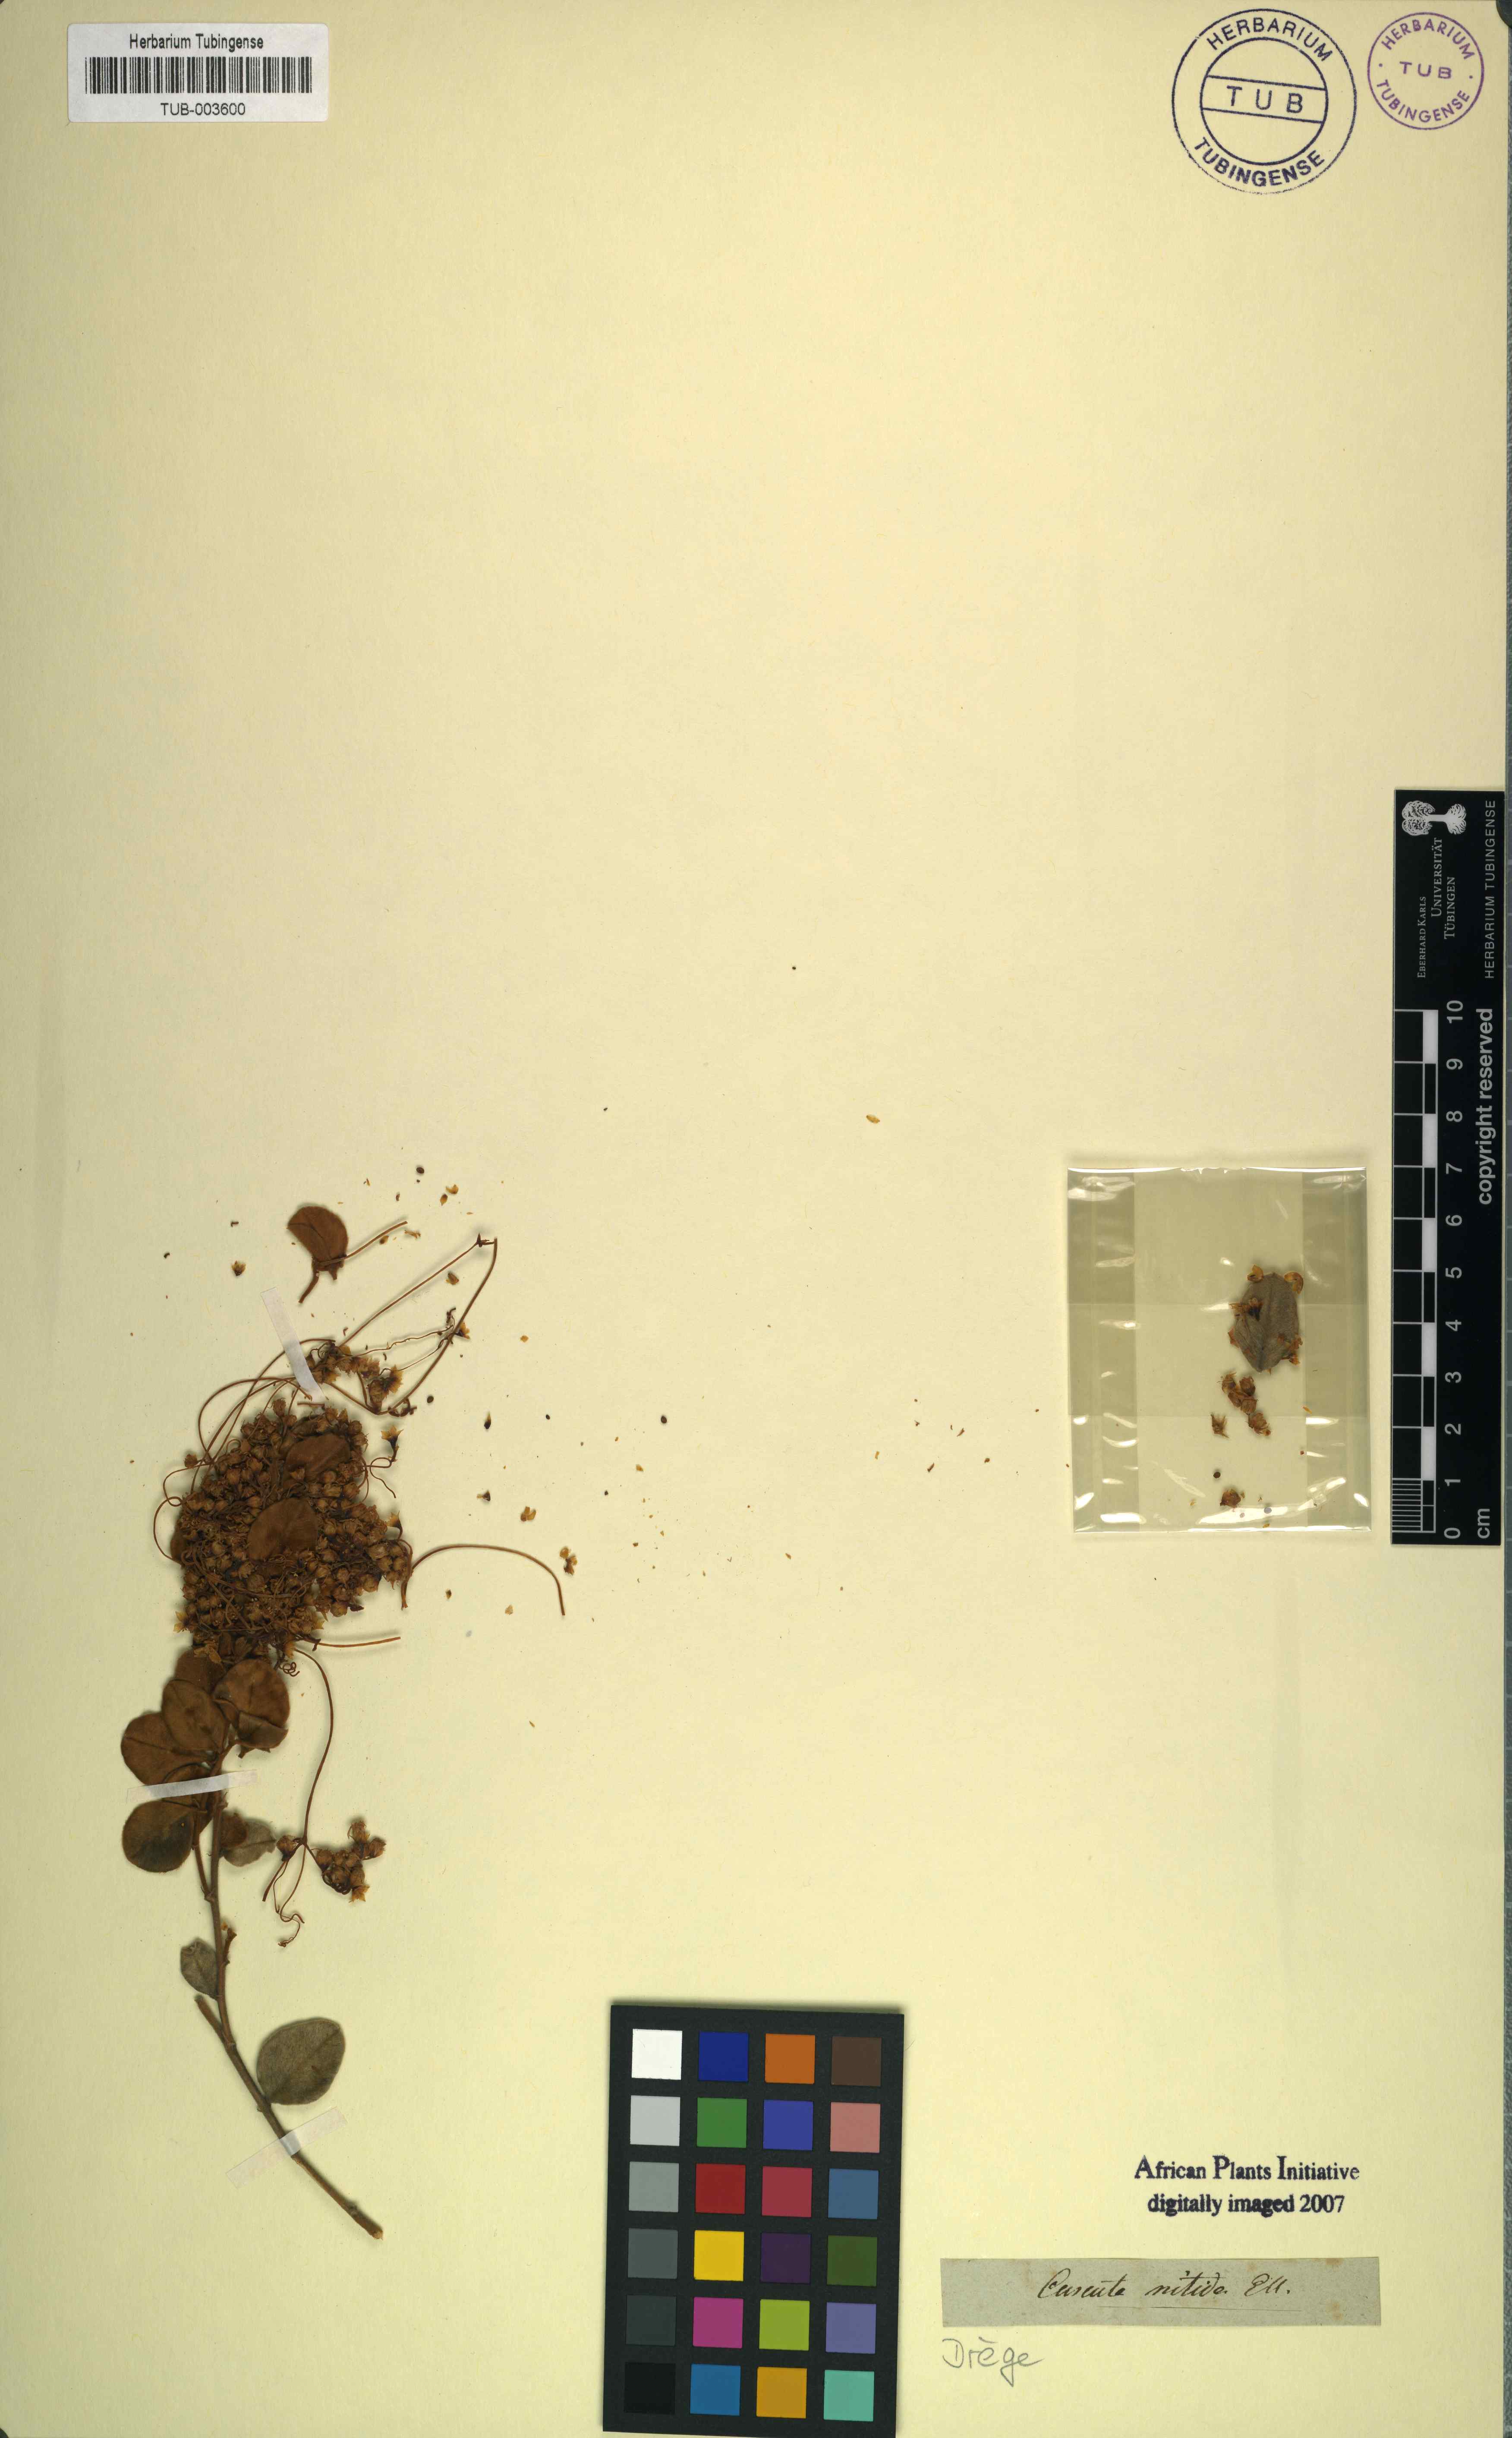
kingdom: Plantae
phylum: Tracheophyta
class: Magnoliopsida
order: Solanales
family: Convolvulaceae
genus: Cuscuta
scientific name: Cuscuta nitida
